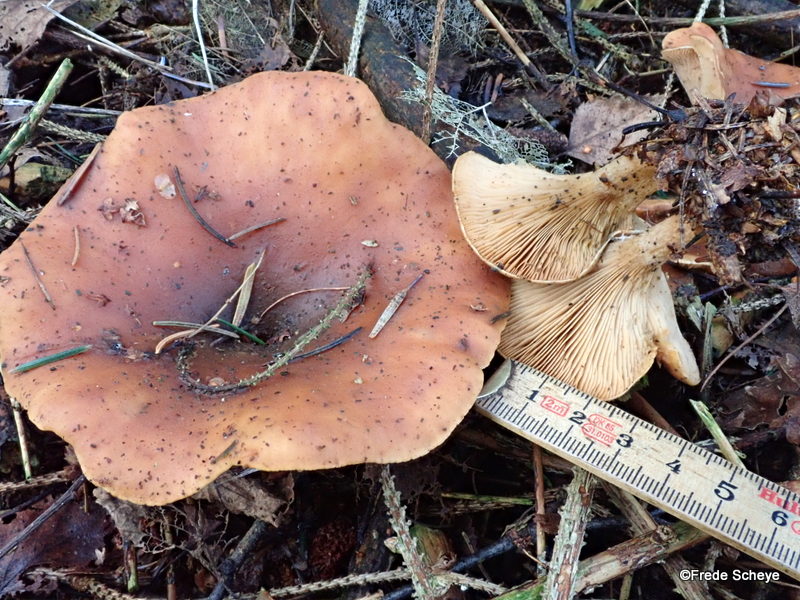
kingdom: Fungi
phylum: Basidiomycota
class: Agaricomycetes
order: Agaricales
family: Tricholomataceae
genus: Paralepista
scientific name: Paralepista flaccida
